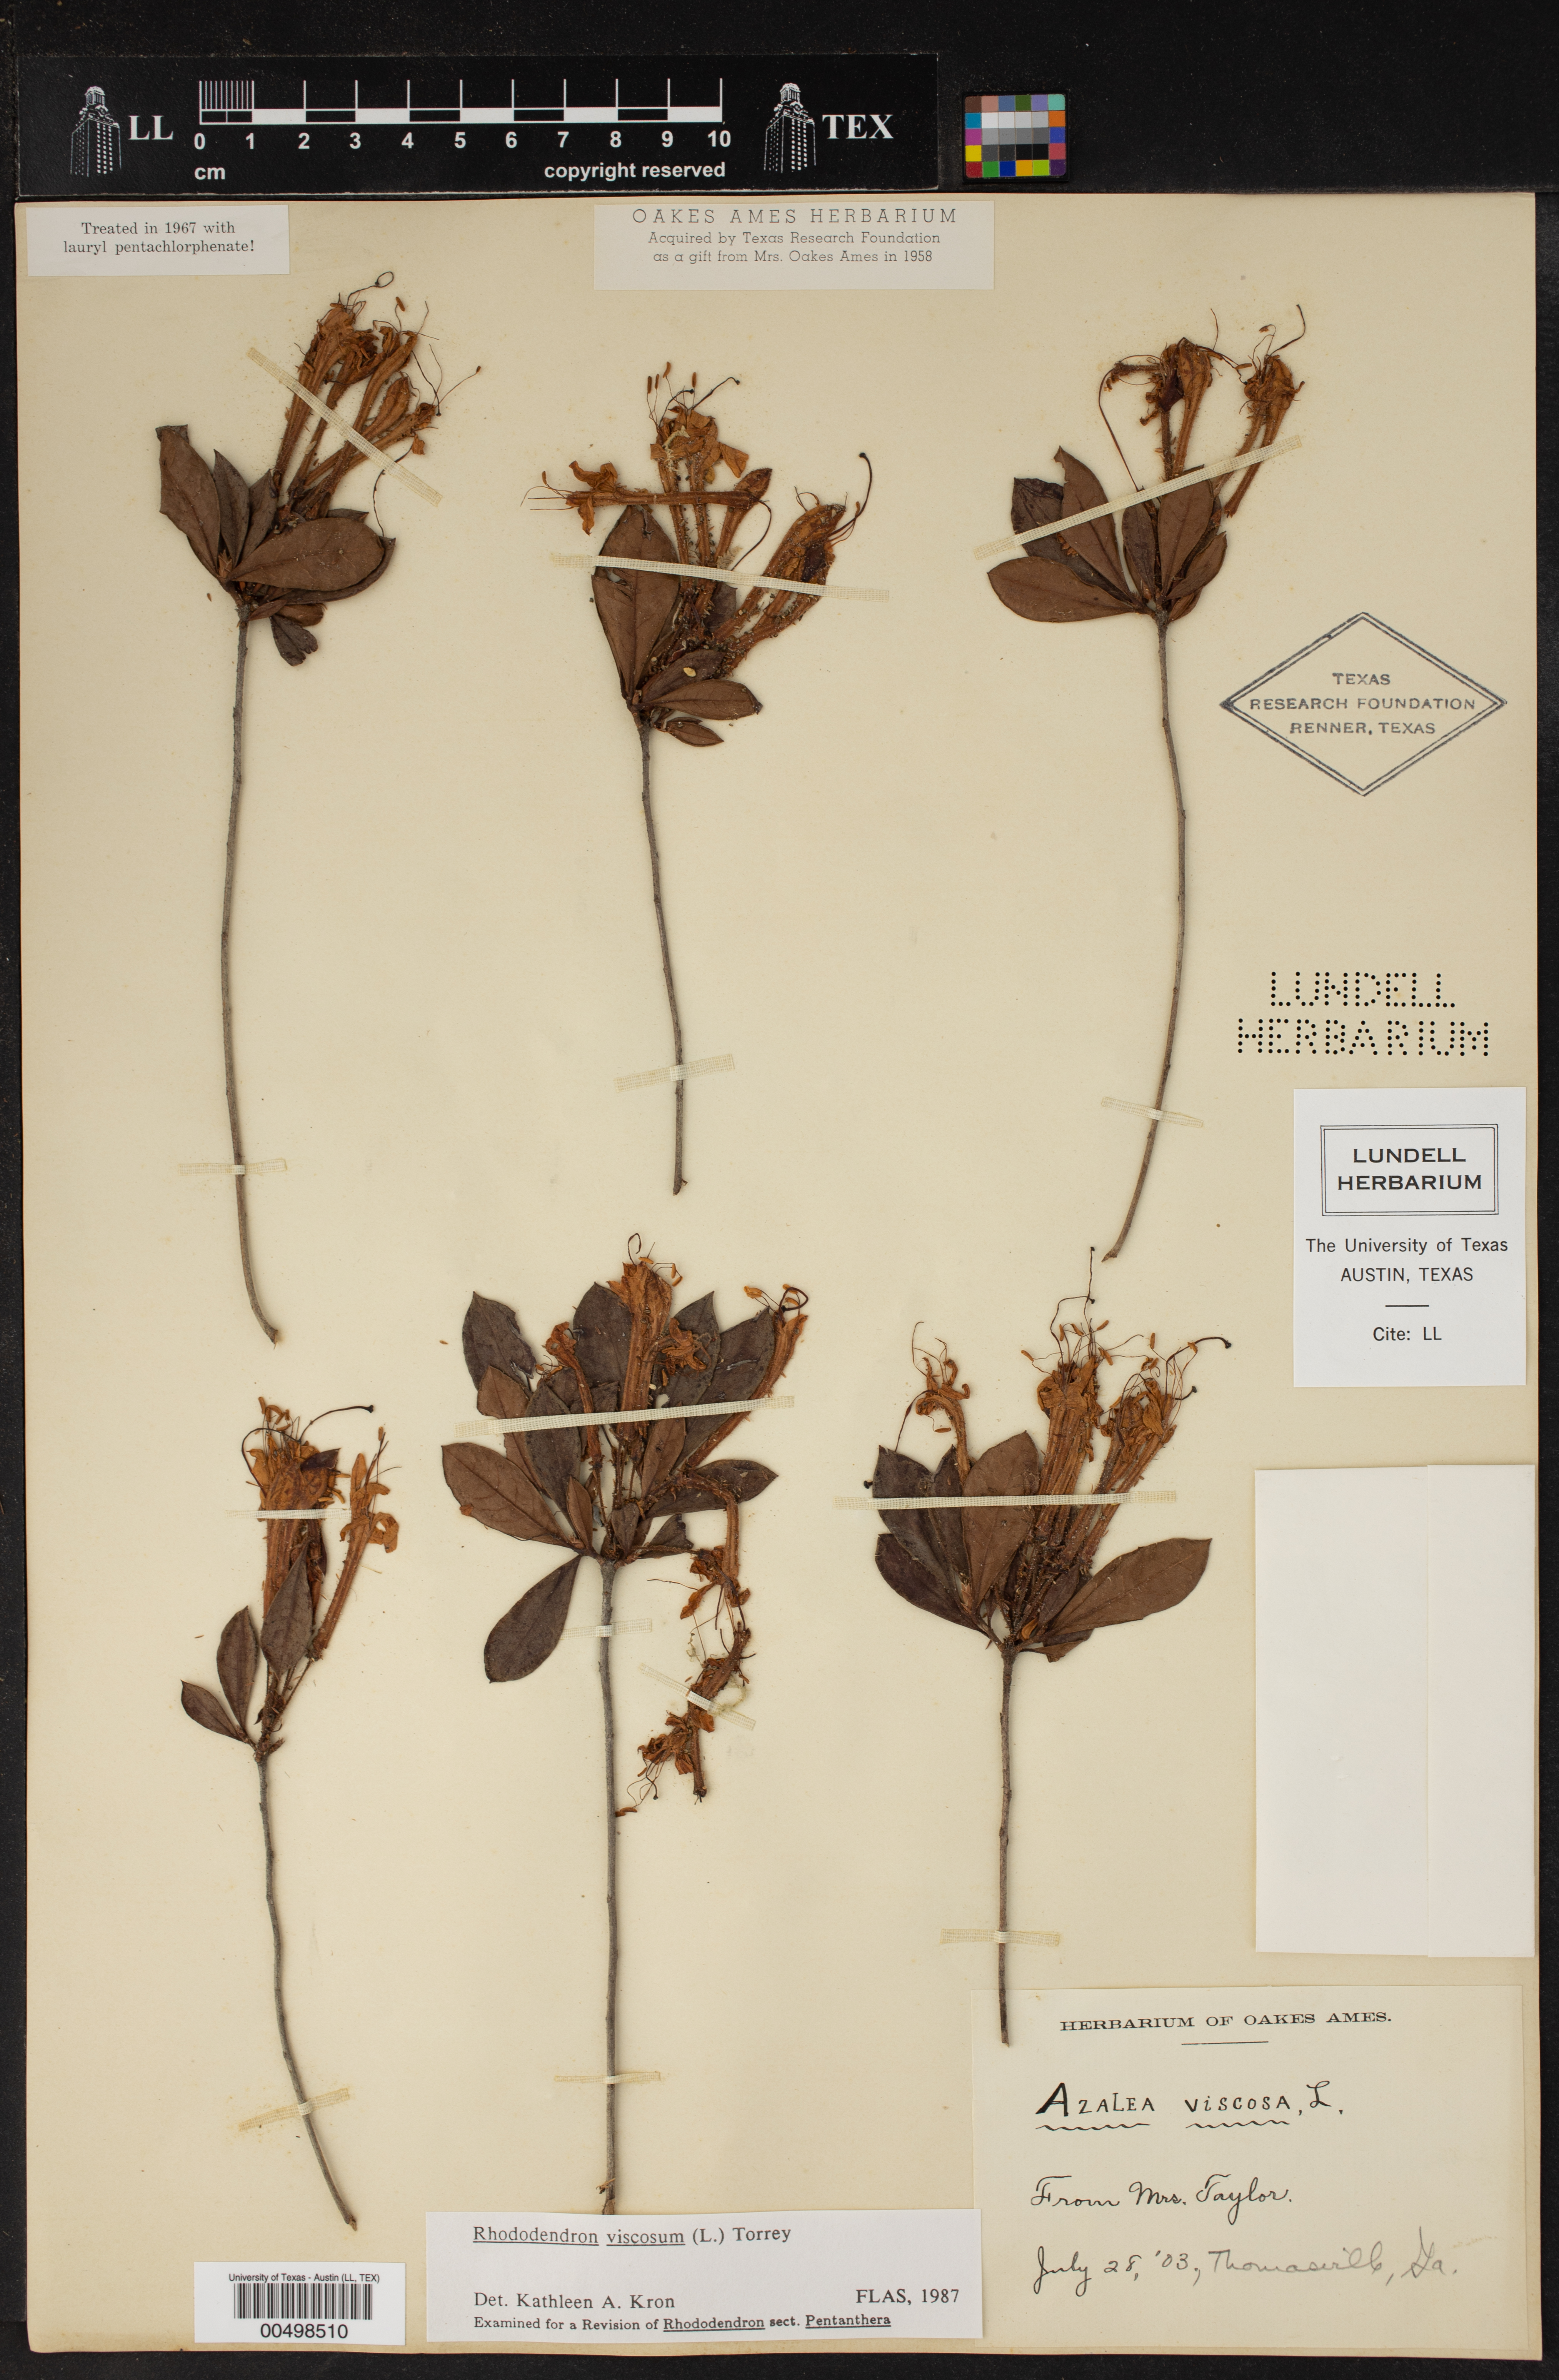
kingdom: Plantae
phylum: Tracheophyta
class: Magnoliopsida
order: Ericales
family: Ericaceae
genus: Rhododendron
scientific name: Rhododendron viscosum
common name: Clammy azalea
